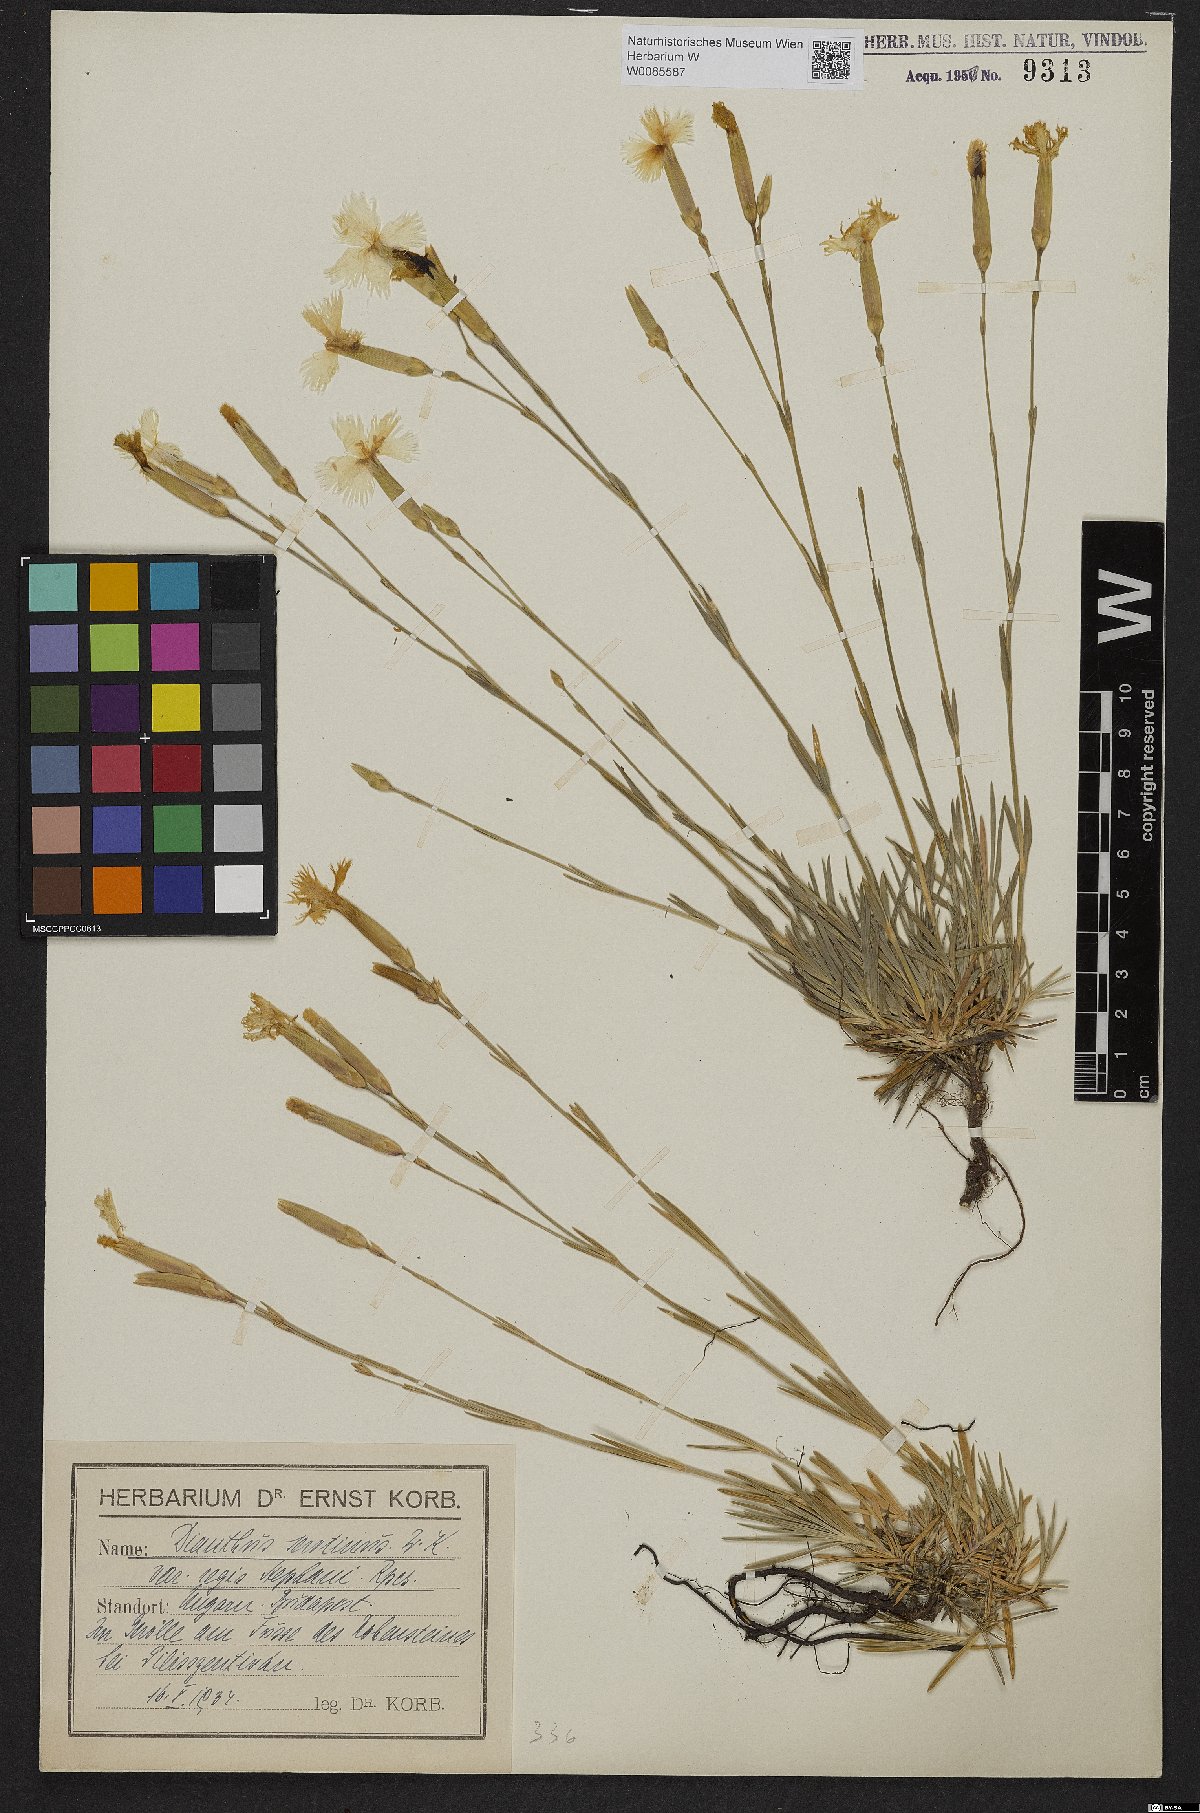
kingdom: Plantae
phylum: Tracheophyta
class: Magnoliopsida
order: Caryophyllales
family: Caryophyllaceae
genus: Dianthus
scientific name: Dianthus plumarius
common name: Pink
